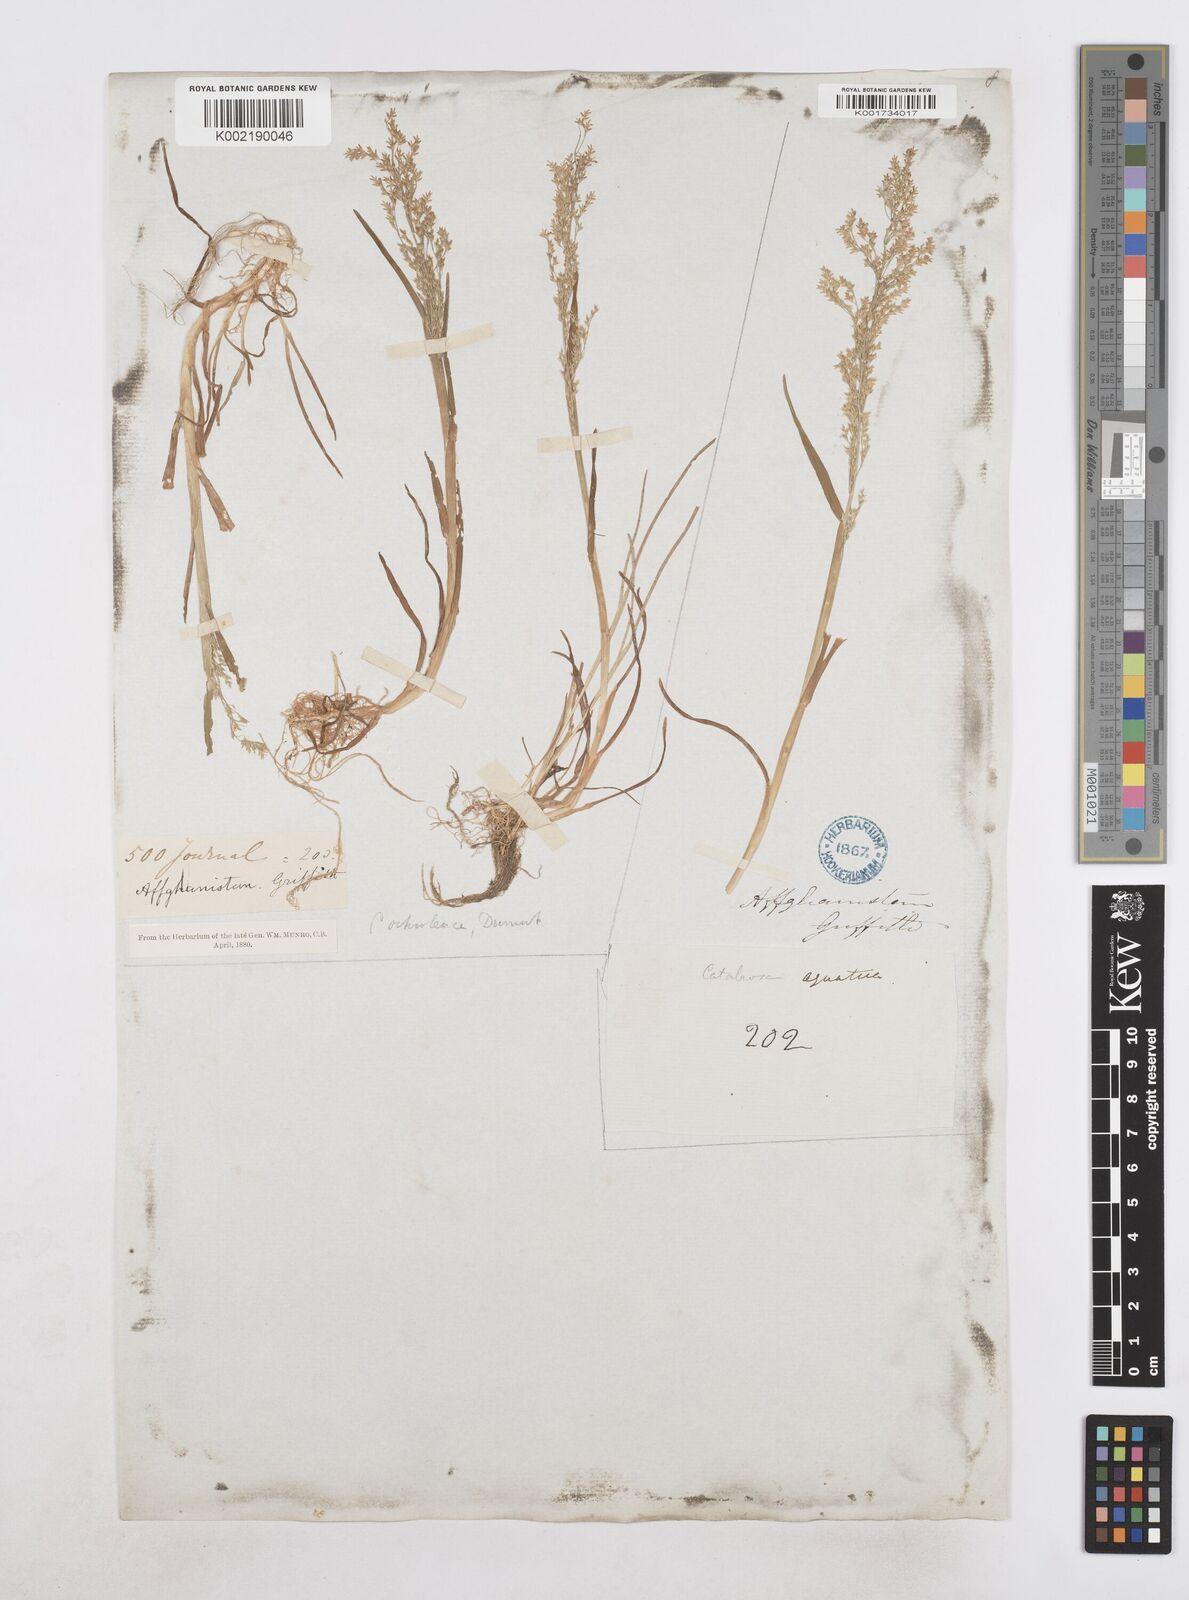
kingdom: Plantae
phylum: Tracheophyta
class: Liliopsida
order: Poales
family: Poaceae
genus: Catabrosa
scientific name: Catabrosa aquatica
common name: Whorl-grass
